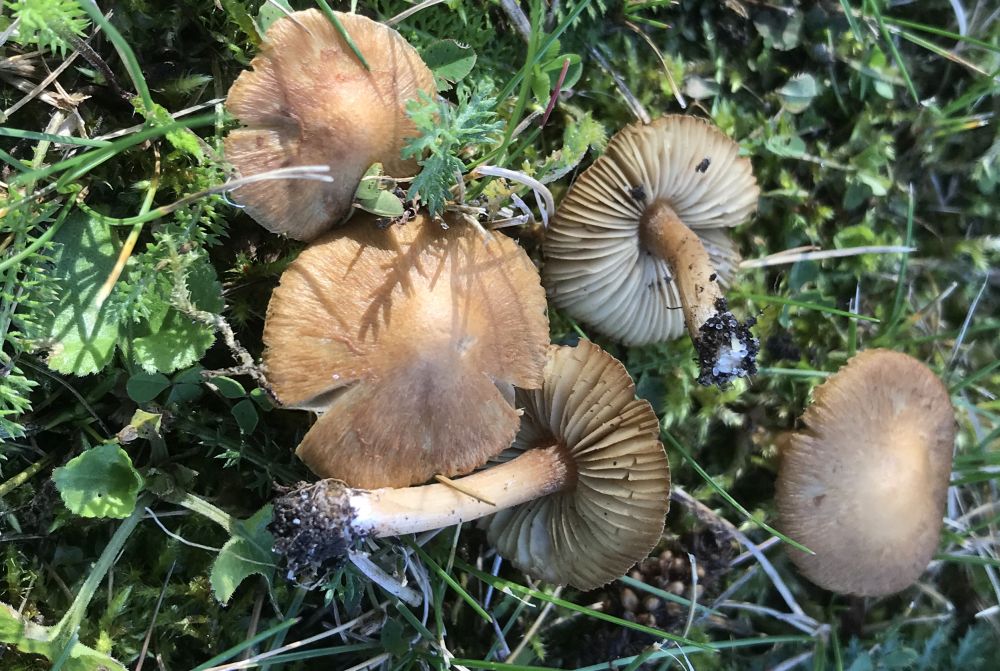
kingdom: Fungi
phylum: Basidiomycota
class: Agaricomycetes
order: Agaricales
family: Inocybaceae
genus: Inocybe
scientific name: Inocybe
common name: trævlhat
